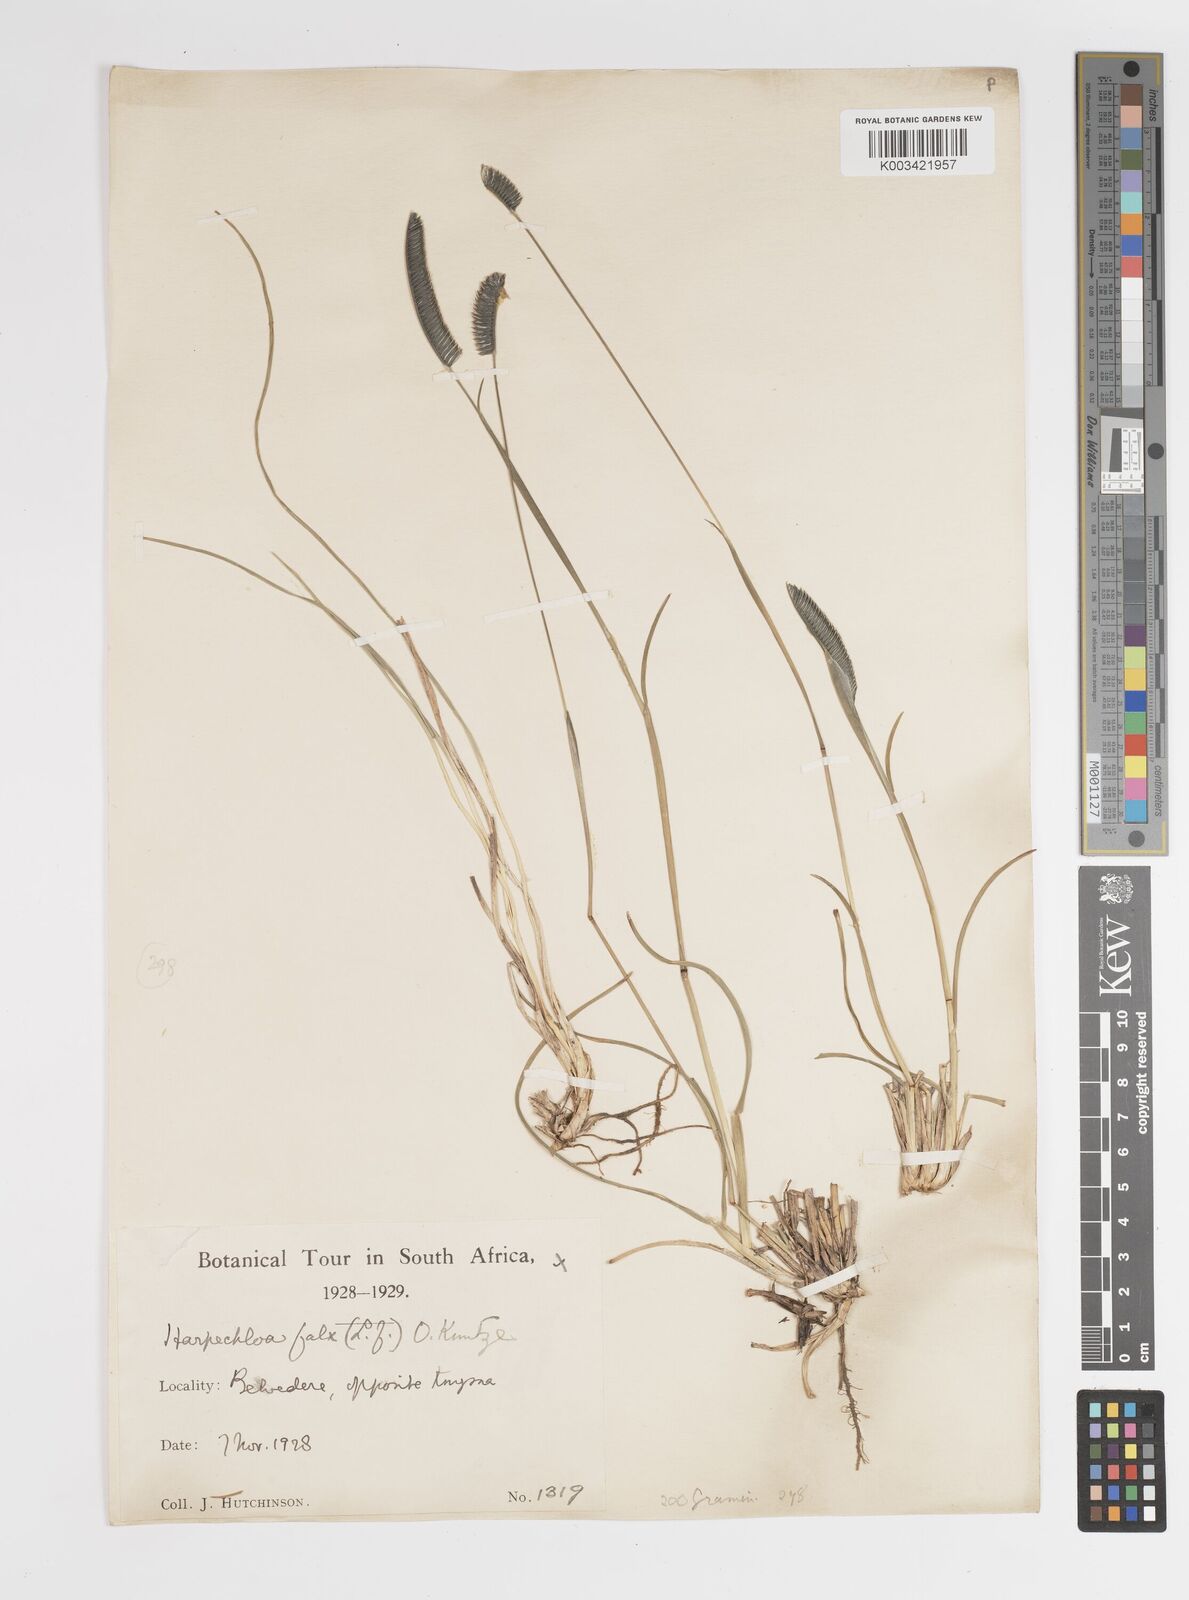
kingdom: Plantae
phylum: Tracheophyta
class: Liliopsida
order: Poales
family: Poaceae
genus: Harpochloa
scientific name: Harpochloa falx
